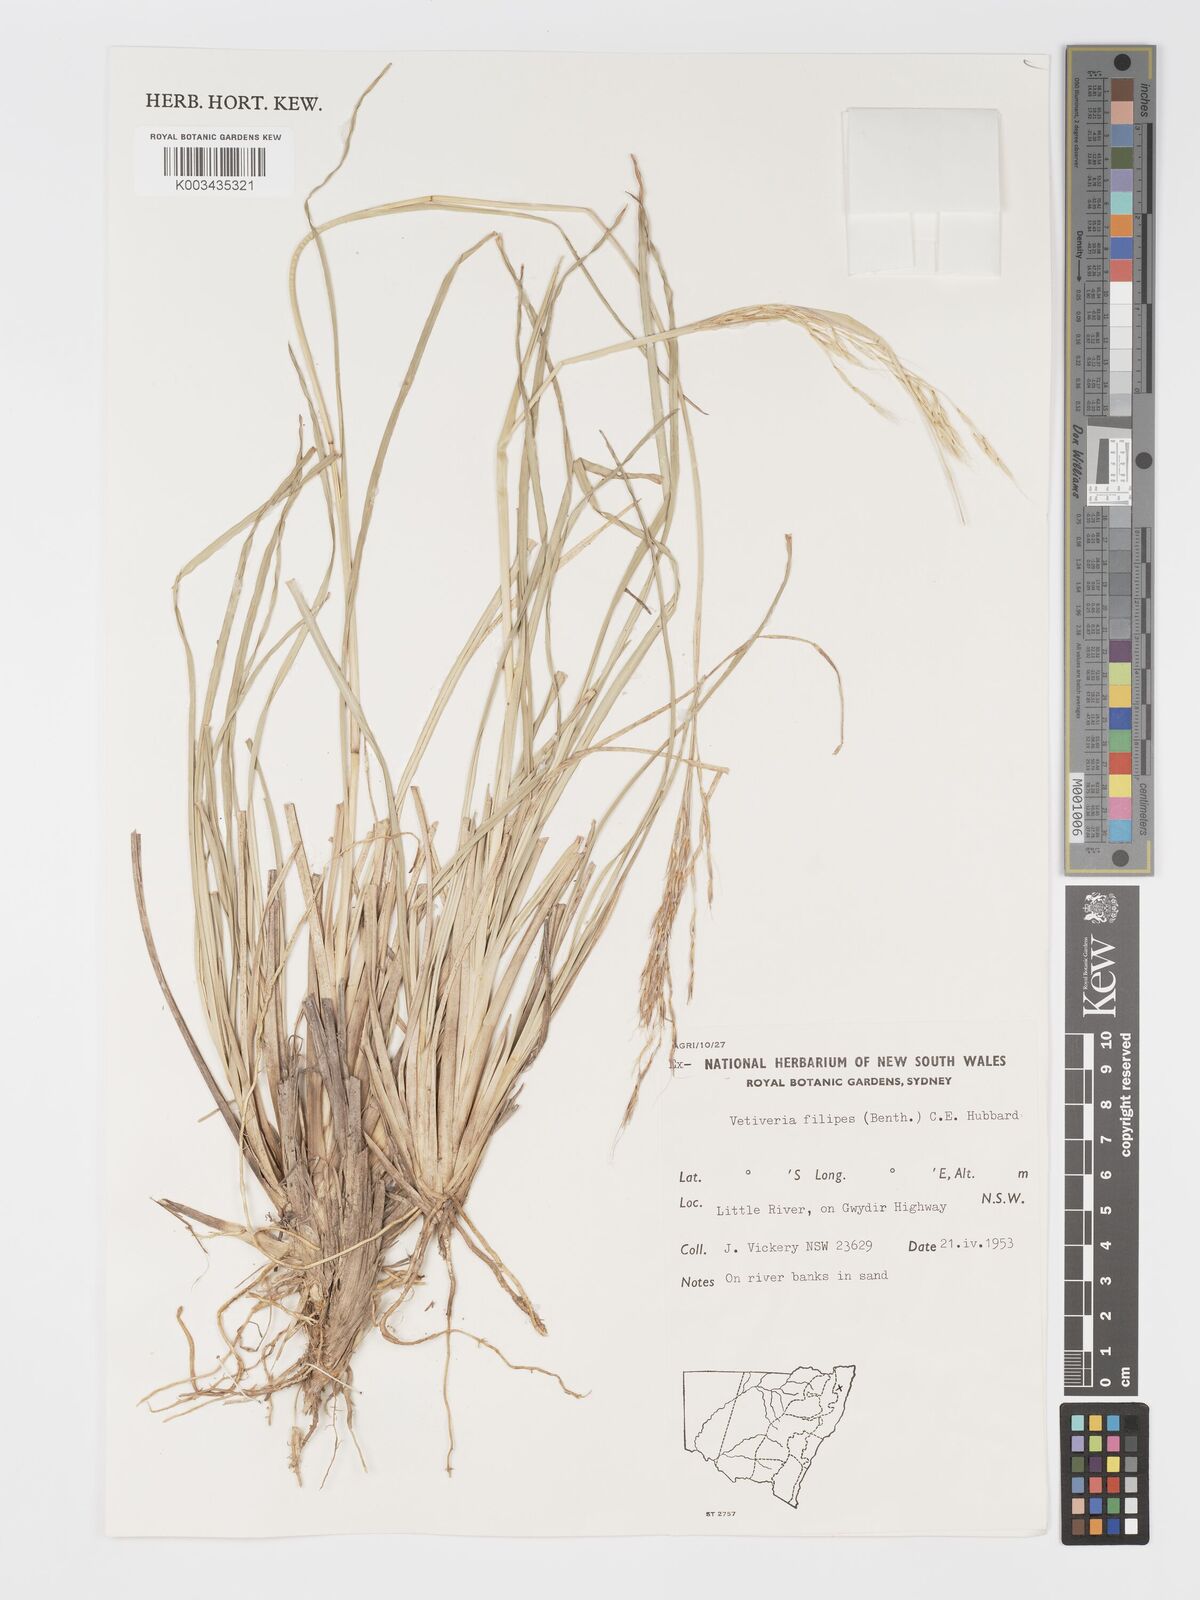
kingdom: Plantae
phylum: Tracheophyta
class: Liliopsida
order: Poales
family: Poaceae
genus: Chrysopogon
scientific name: Chrysopogon filipes
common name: Australian vetiver
